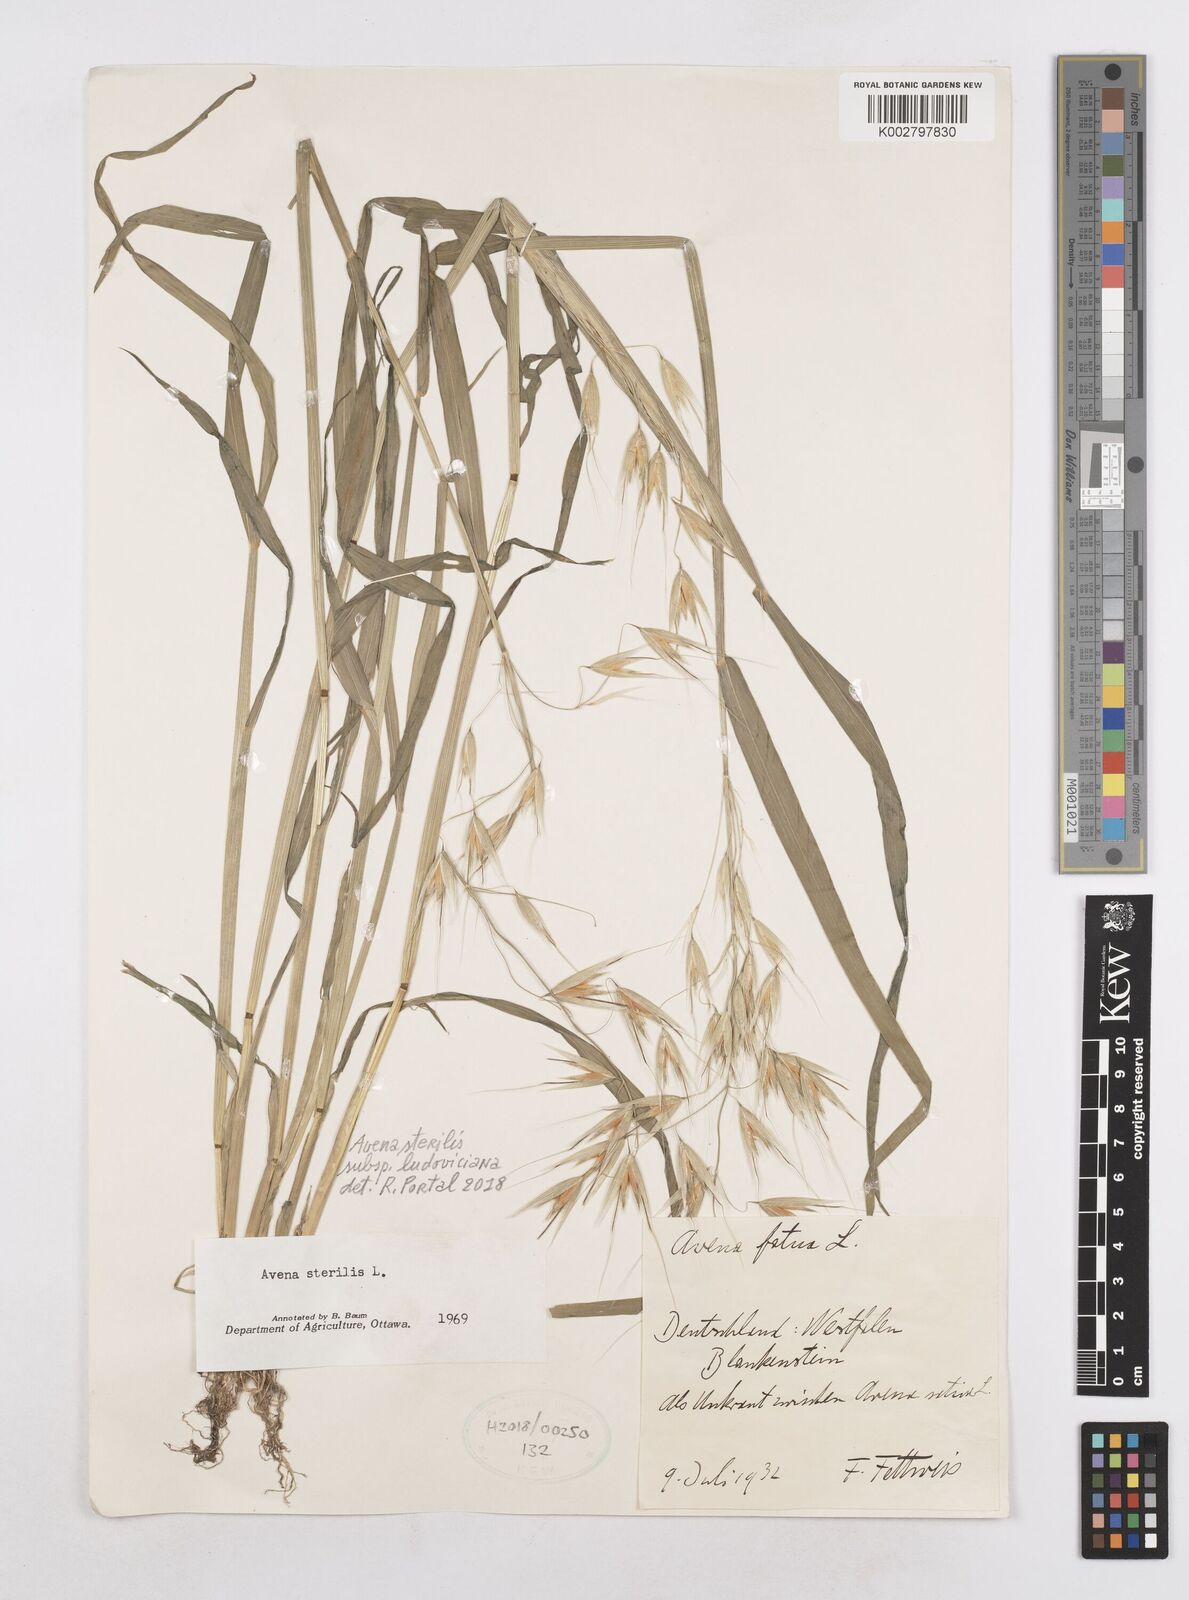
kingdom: Plantae
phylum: Tracheophyta
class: Liliopsida
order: Poales
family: Poaceae
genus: Avena
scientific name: Avena sterilis
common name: Animated oat
